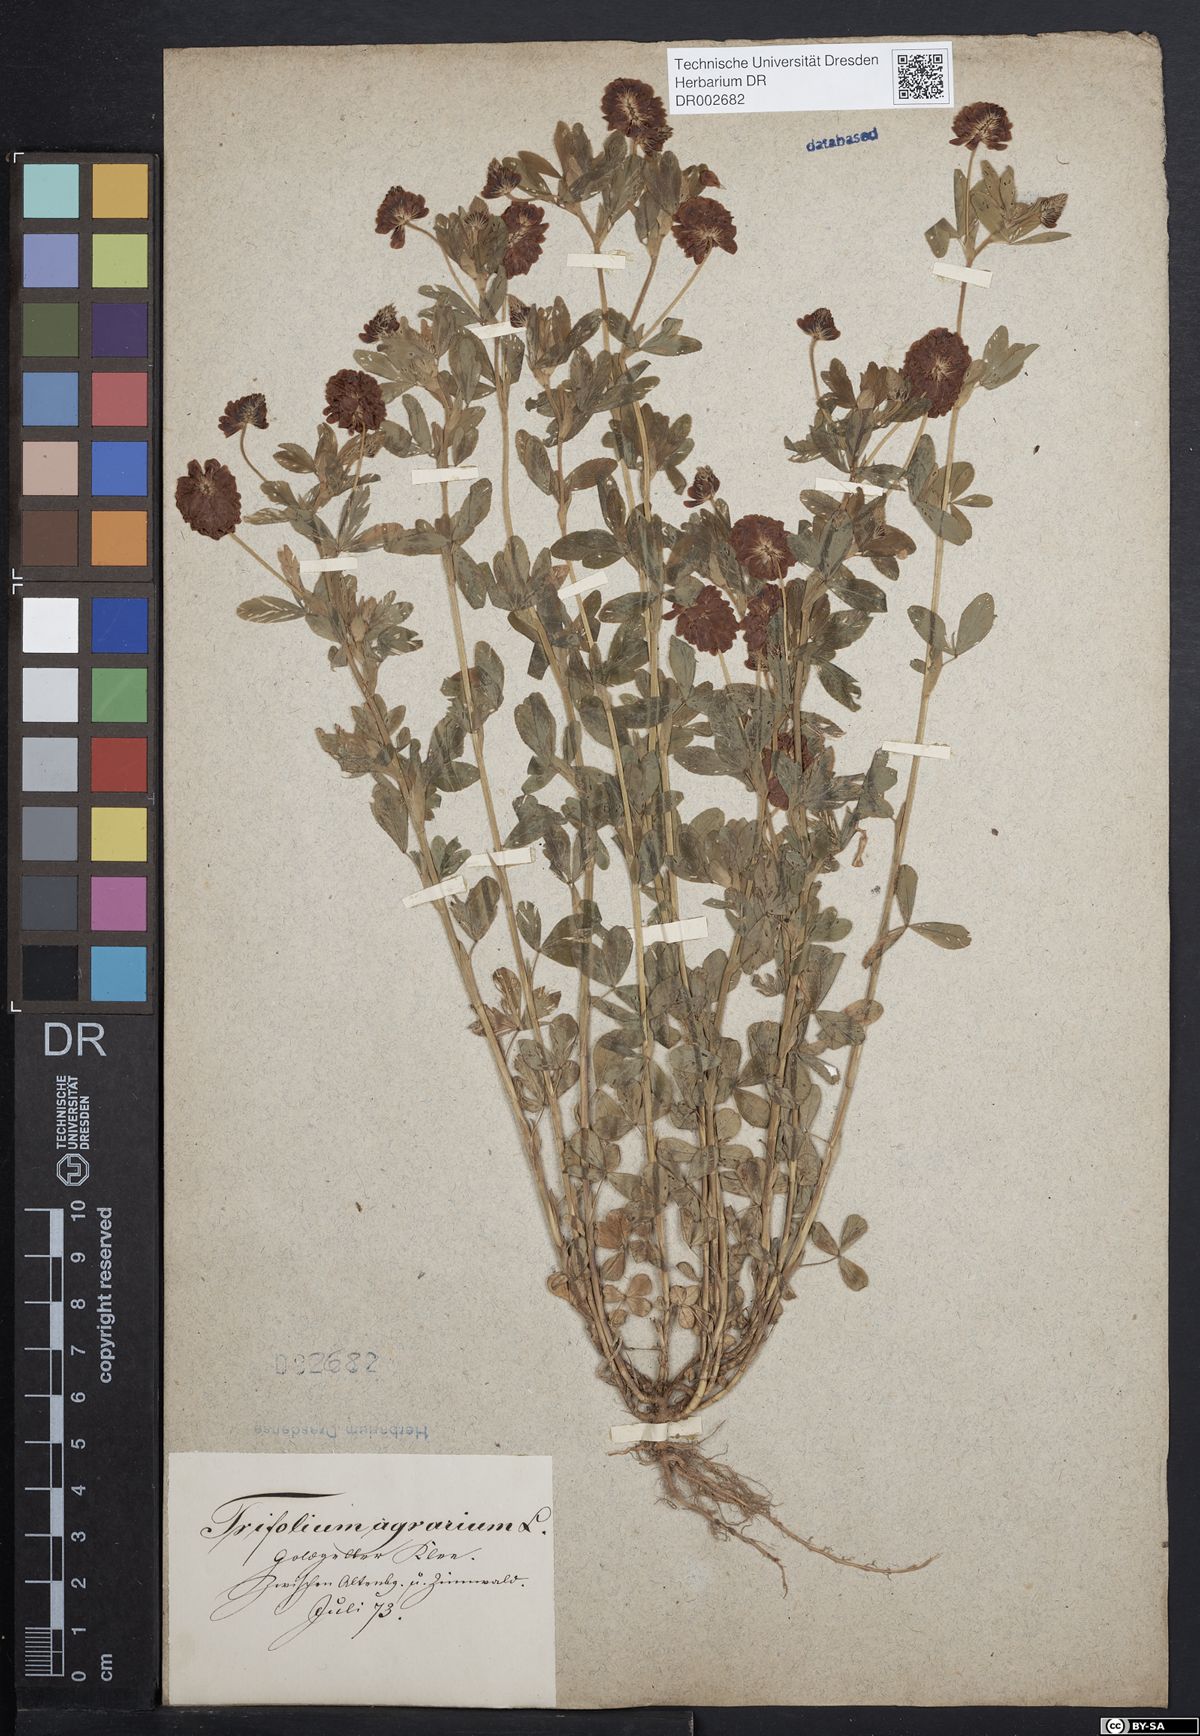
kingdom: Plantae
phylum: Tracheophyta
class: Magnoliopsida
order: Fabales
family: Fabaceae
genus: Trifolium
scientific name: Trifolium aureum
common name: Golden clover
